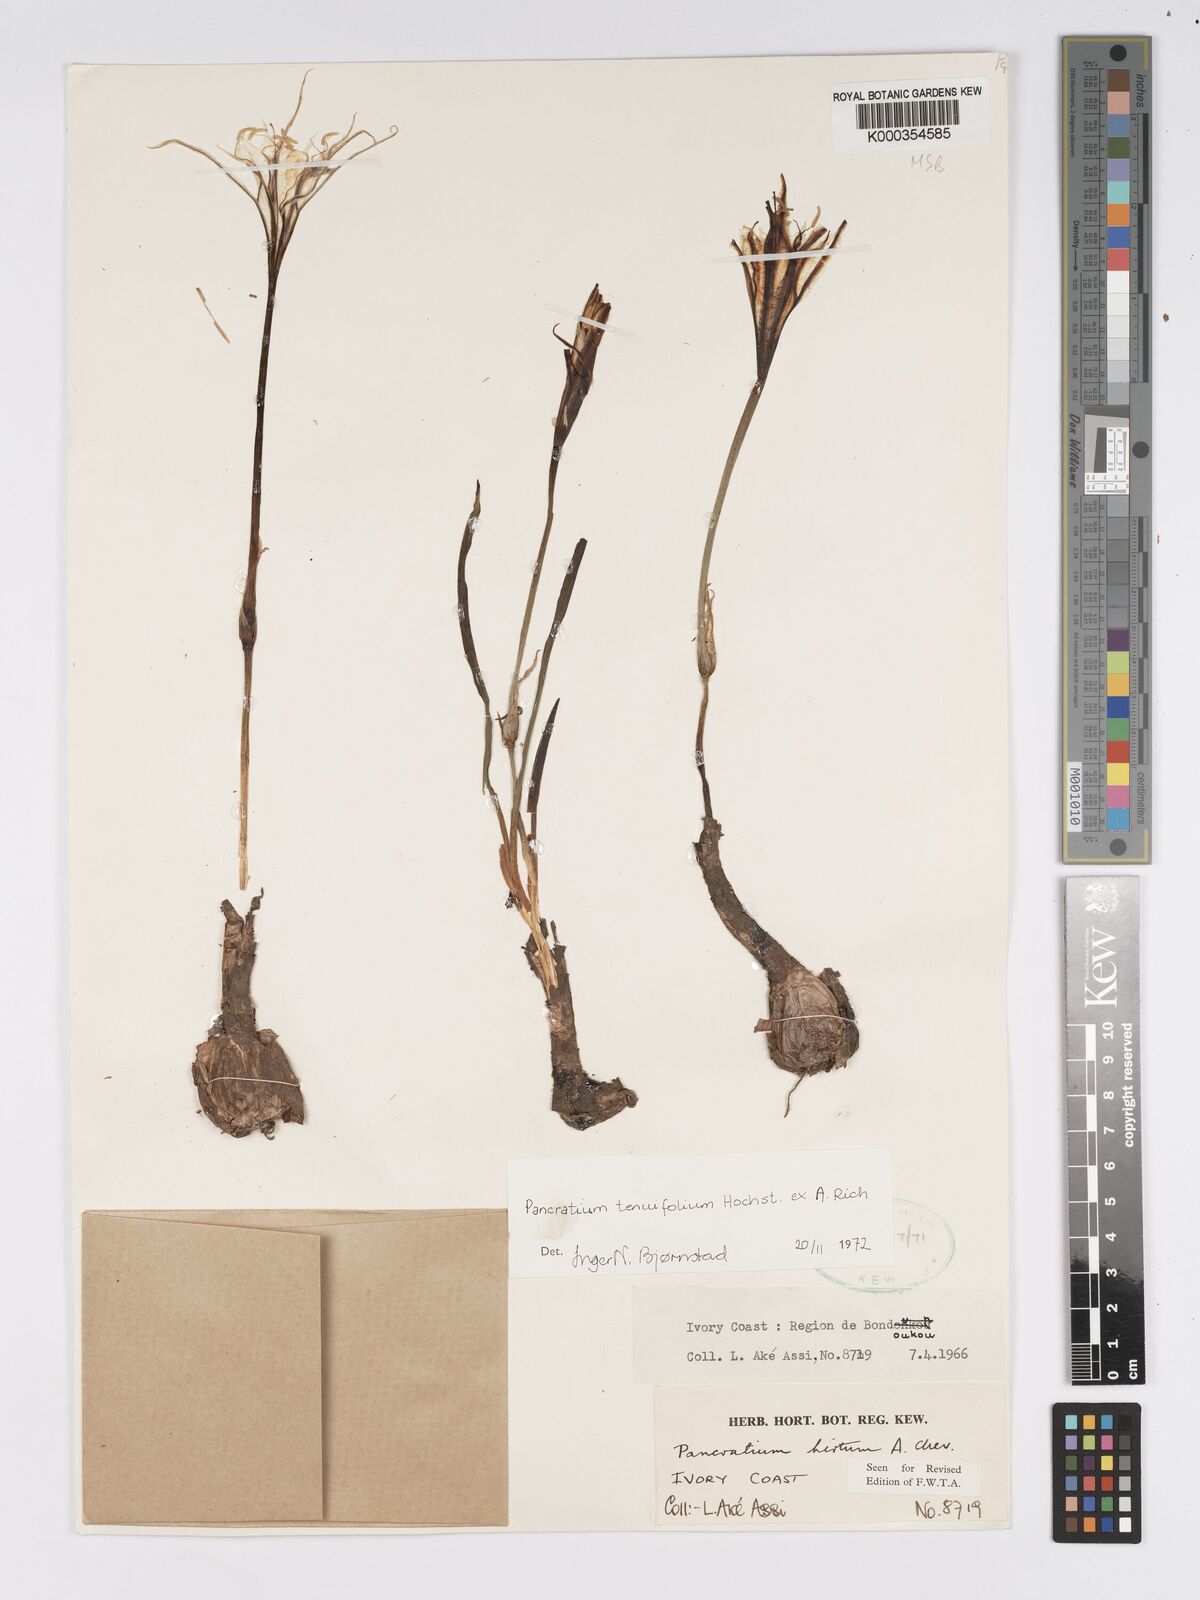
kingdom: Plantae
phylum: Tracheophyta
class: Liliopsida
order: Asparagales
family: Amaryllidaceae
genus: Pancratium
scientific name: Pancratium tenuifolium
